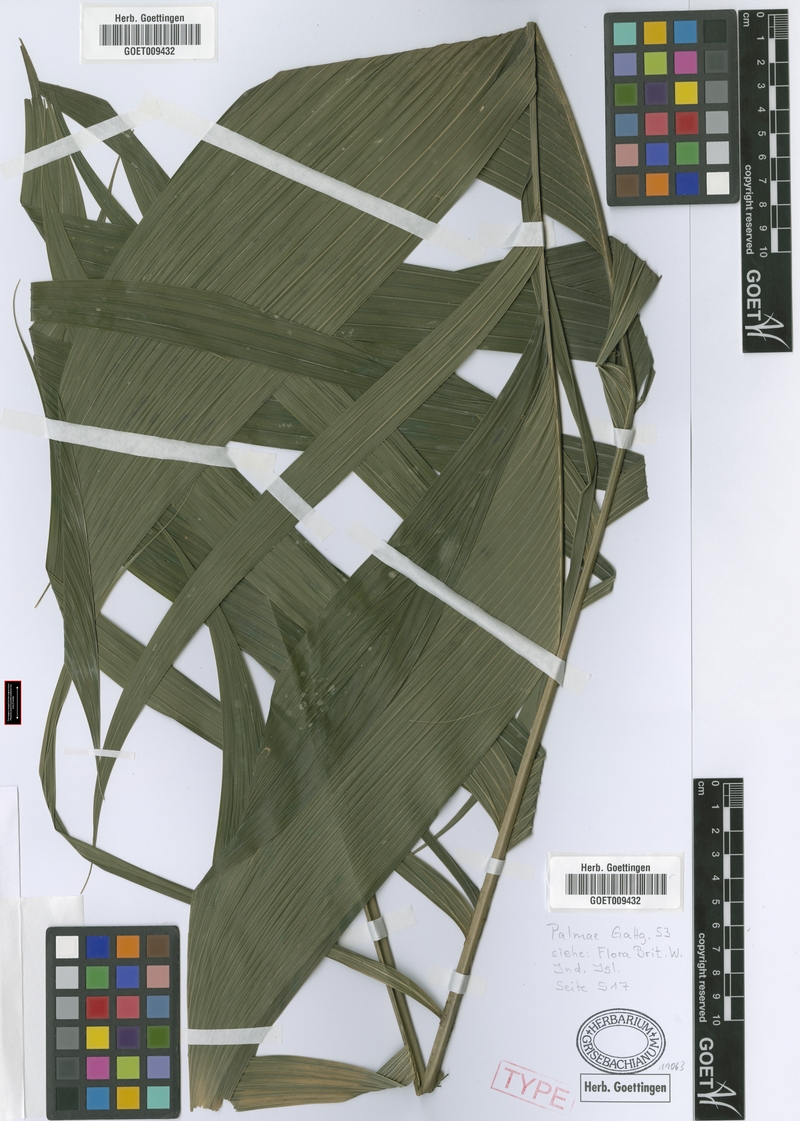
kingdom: Plantae
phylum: Tracheophyta
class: Liliopsida
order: Arecales
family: Arecaceae
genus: Geonoma
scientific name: Geonoma pinnatifrons
